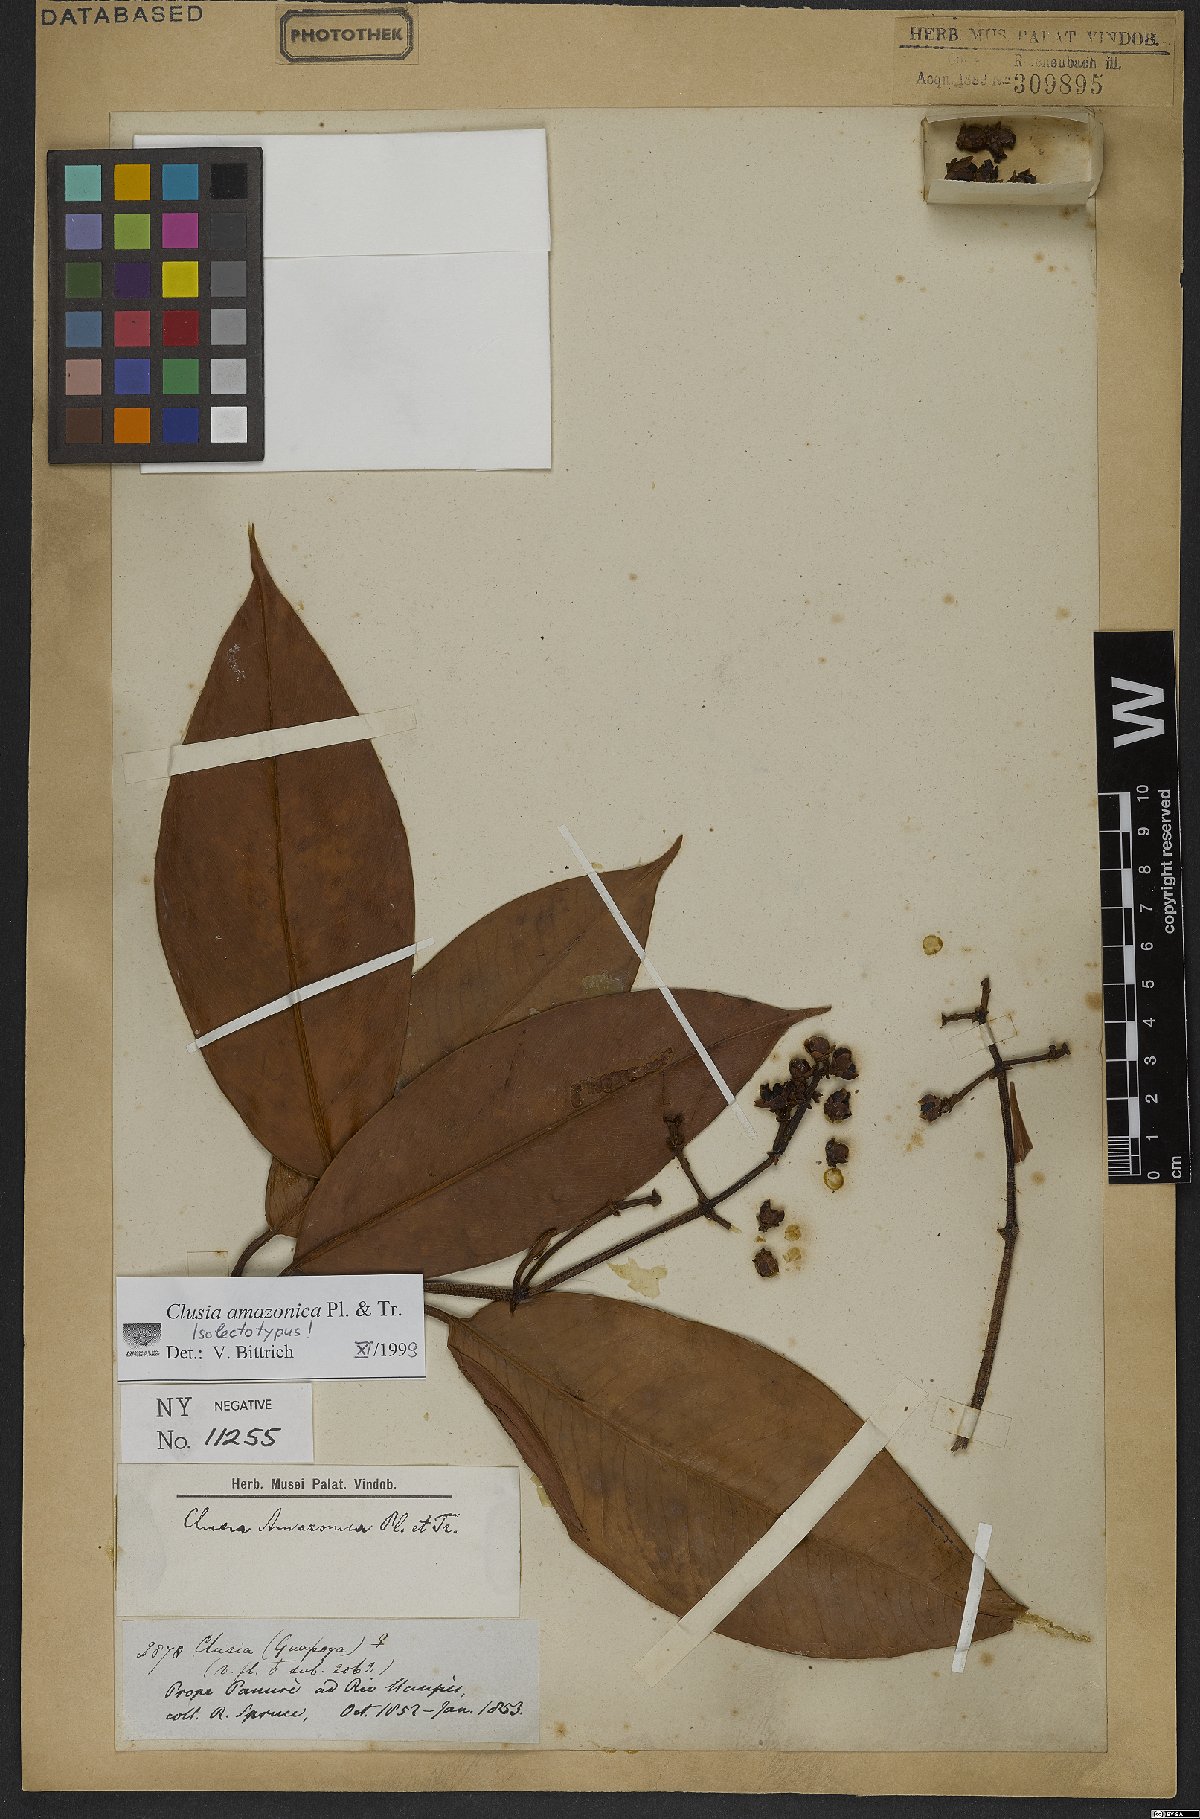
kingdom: Plantae
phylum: Tracheophyta
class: Magnoliopsida
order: Malpighiales
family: Clusiaceae
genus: Clusia
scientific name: Clusia amazonica
